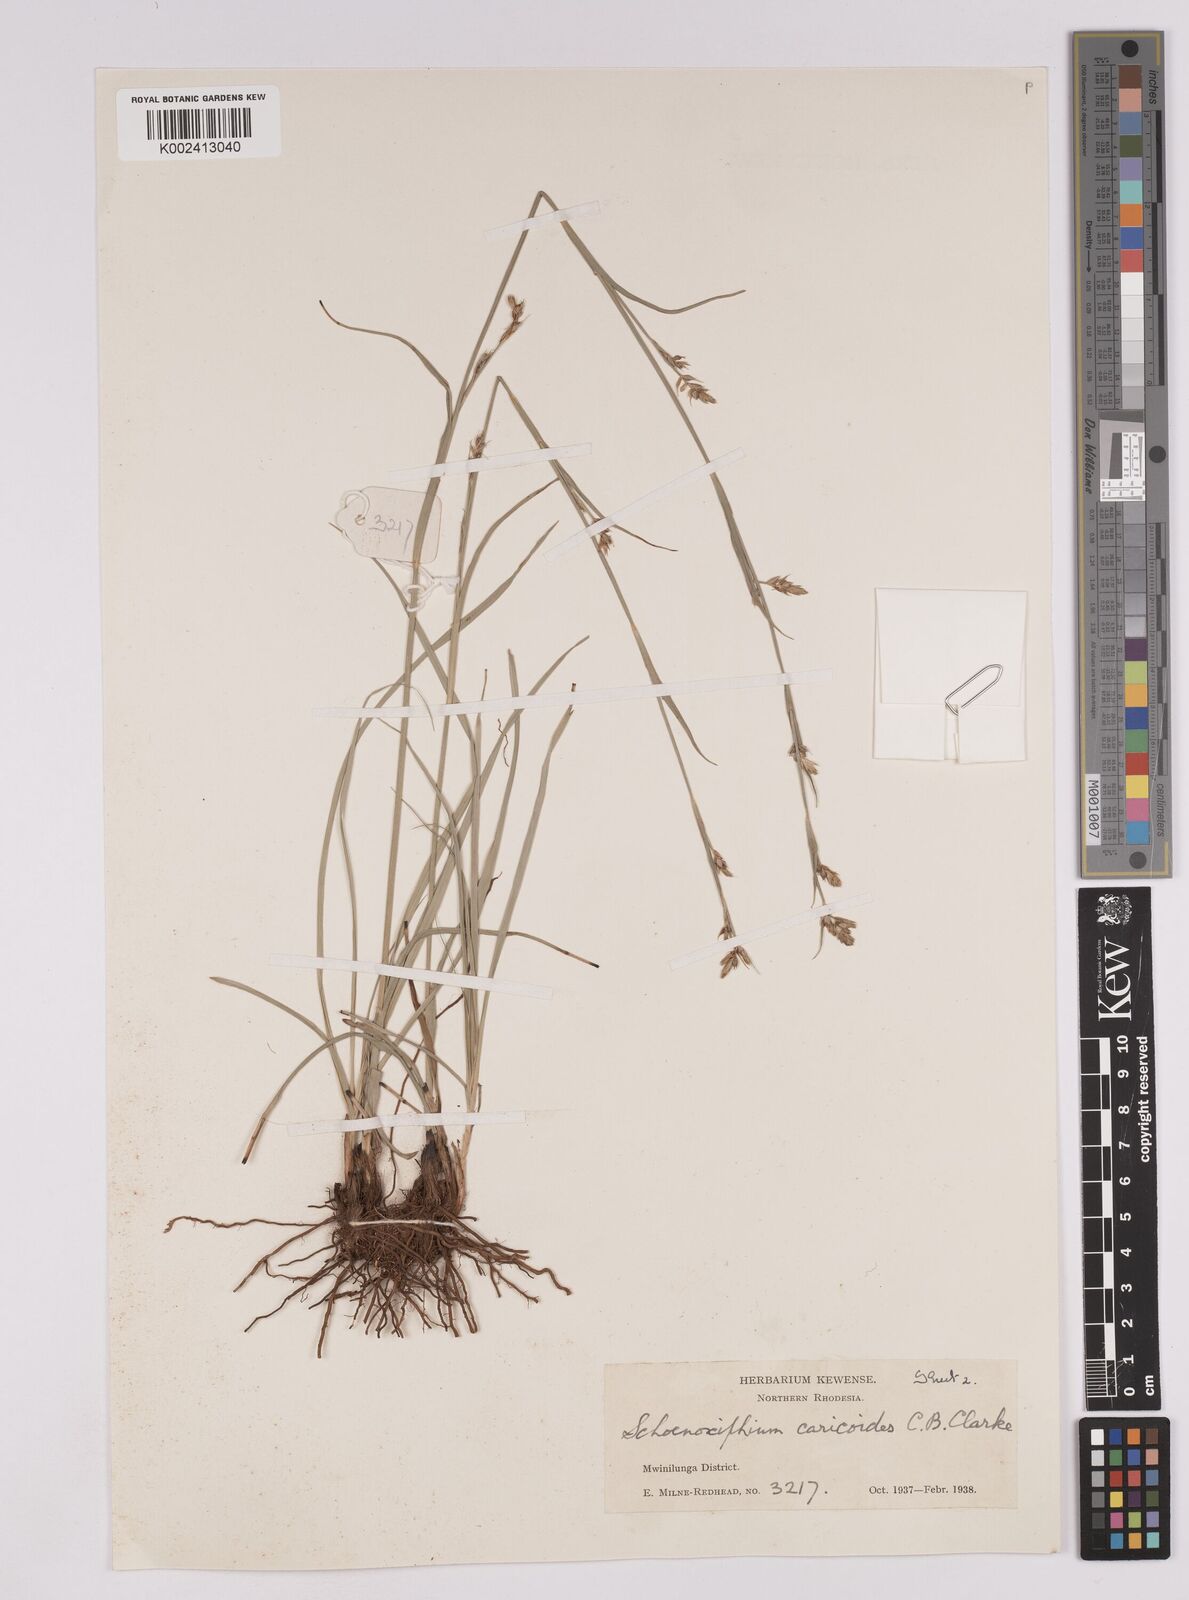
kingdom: Plantae
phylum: Tracheophyta
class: Liliopsida
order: Poales
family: Cyperaceae
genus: Carex
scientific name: Carex spartea
